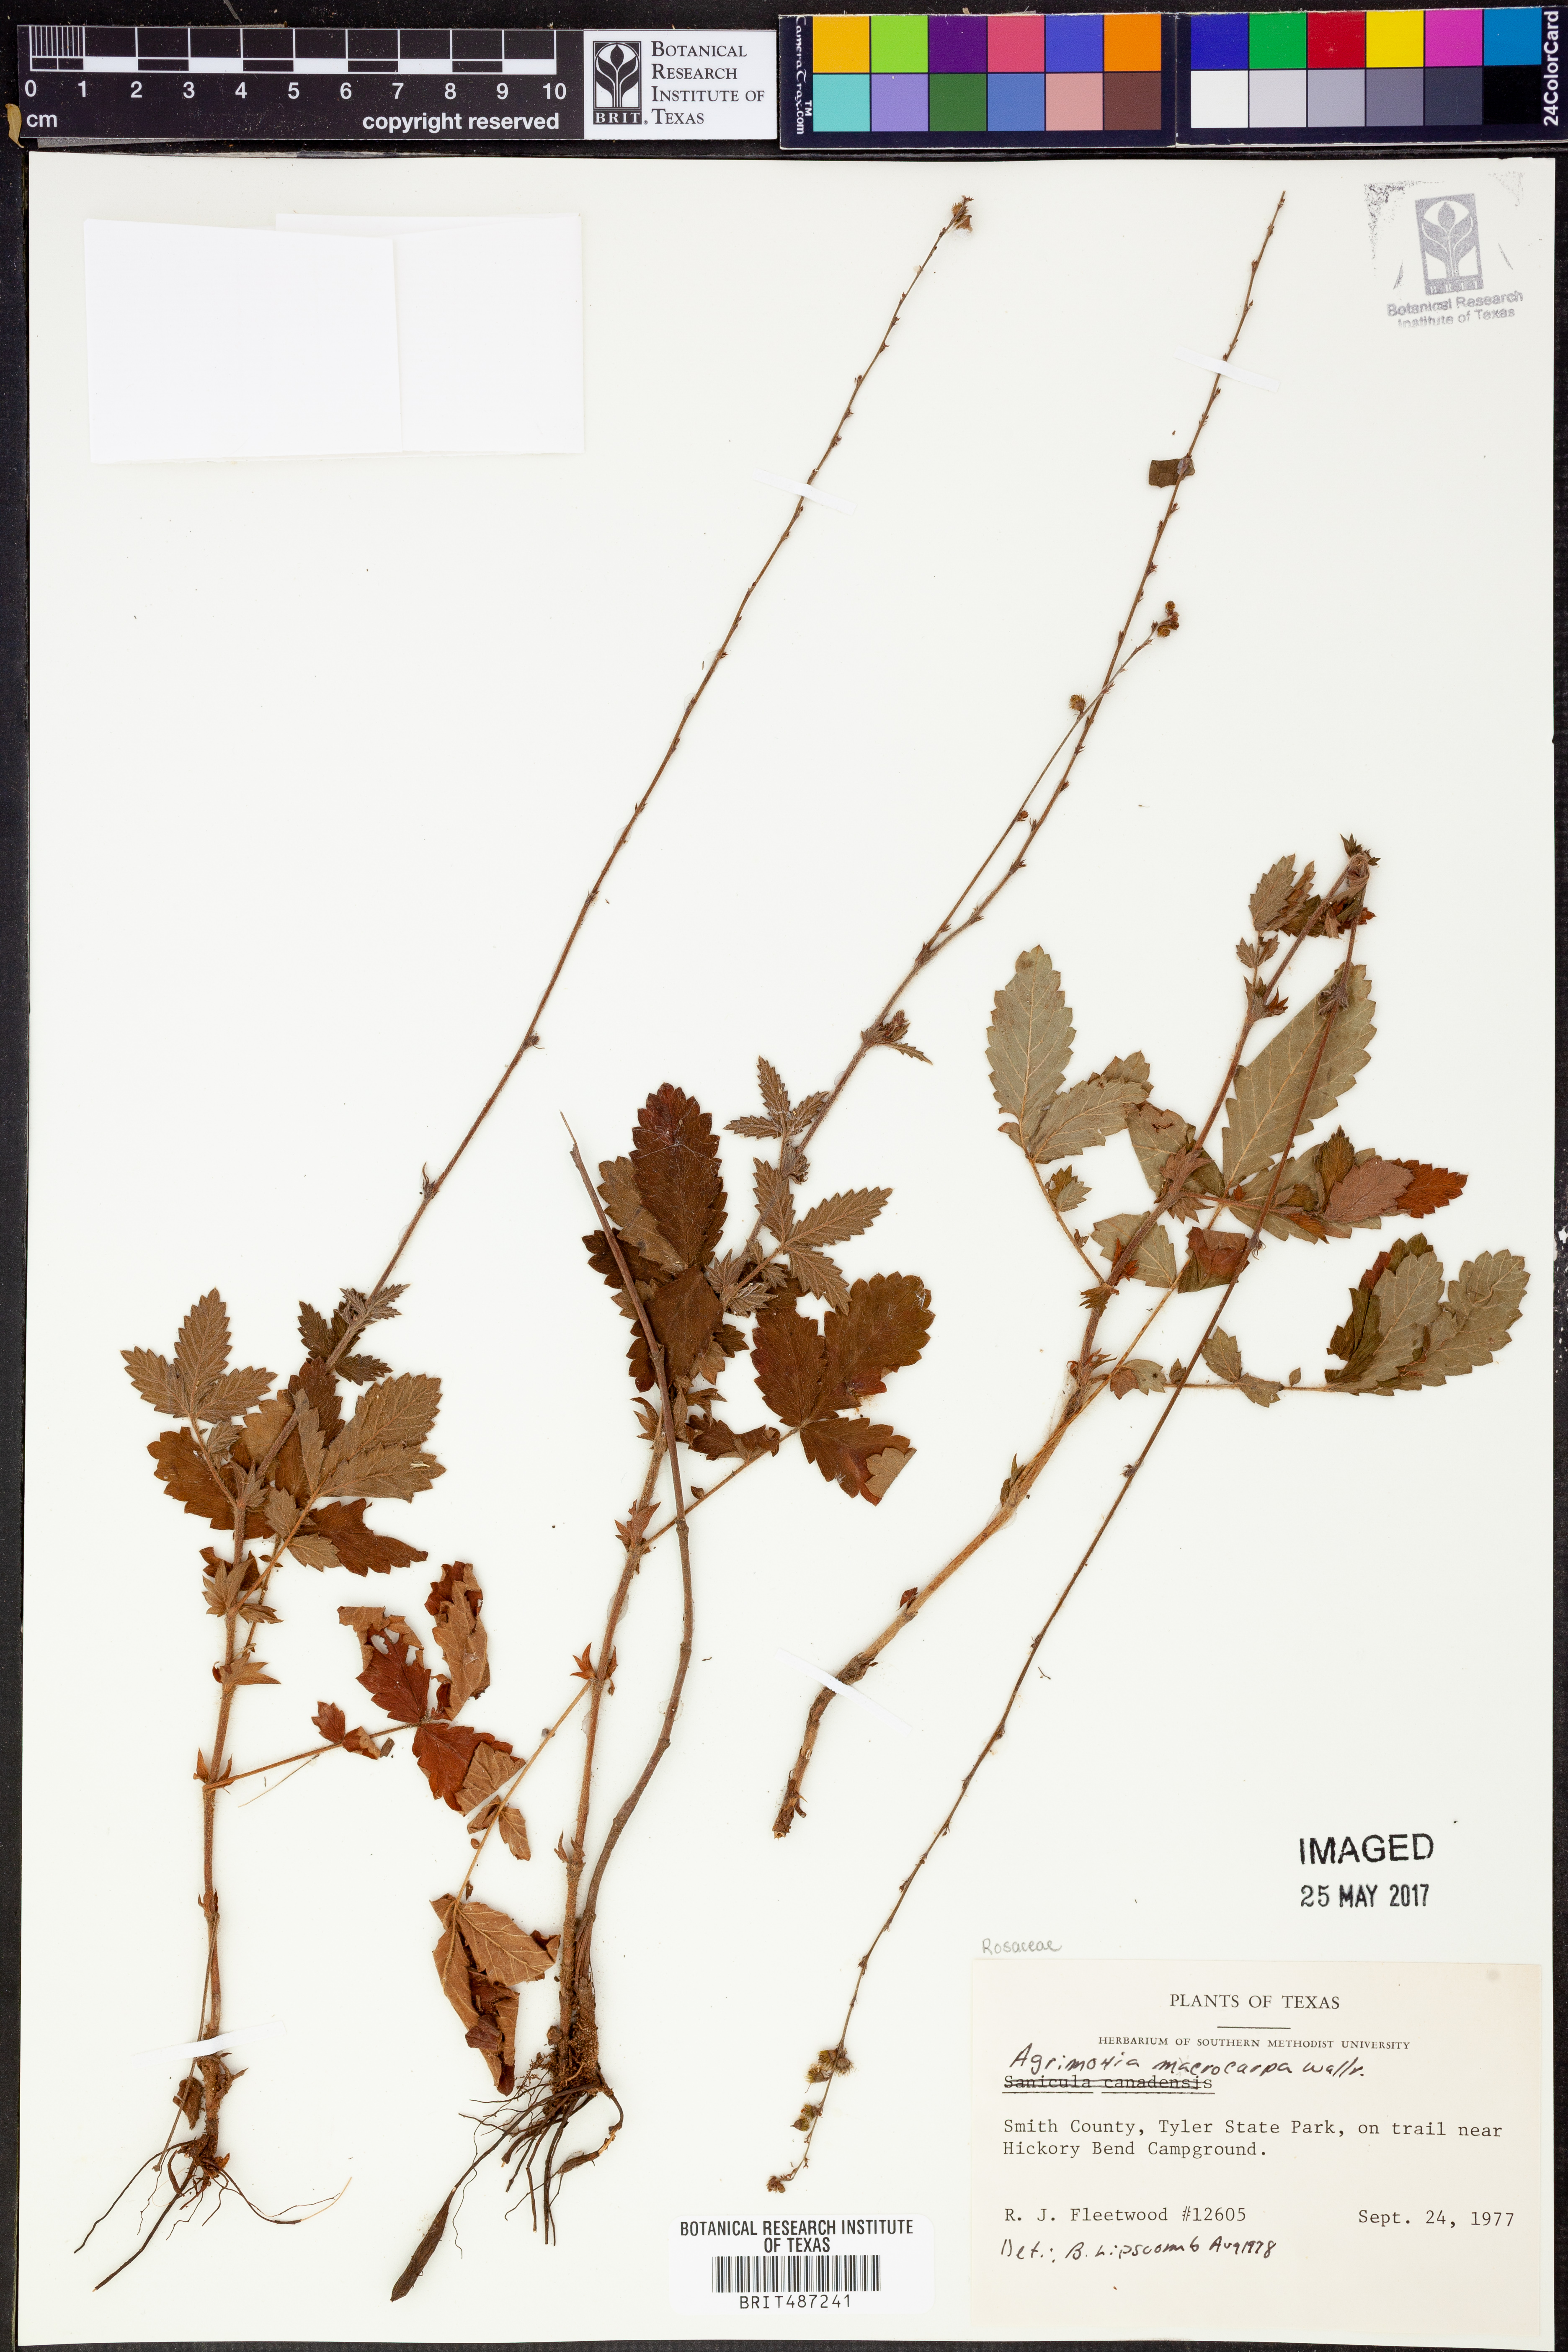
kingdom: Plantae
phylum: Tracheophyta
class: Magnoliopsida
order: Rosales
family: Rosaceae
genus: Agrimonia
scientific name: Agrimonia gryposepala
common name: Common agrimony
